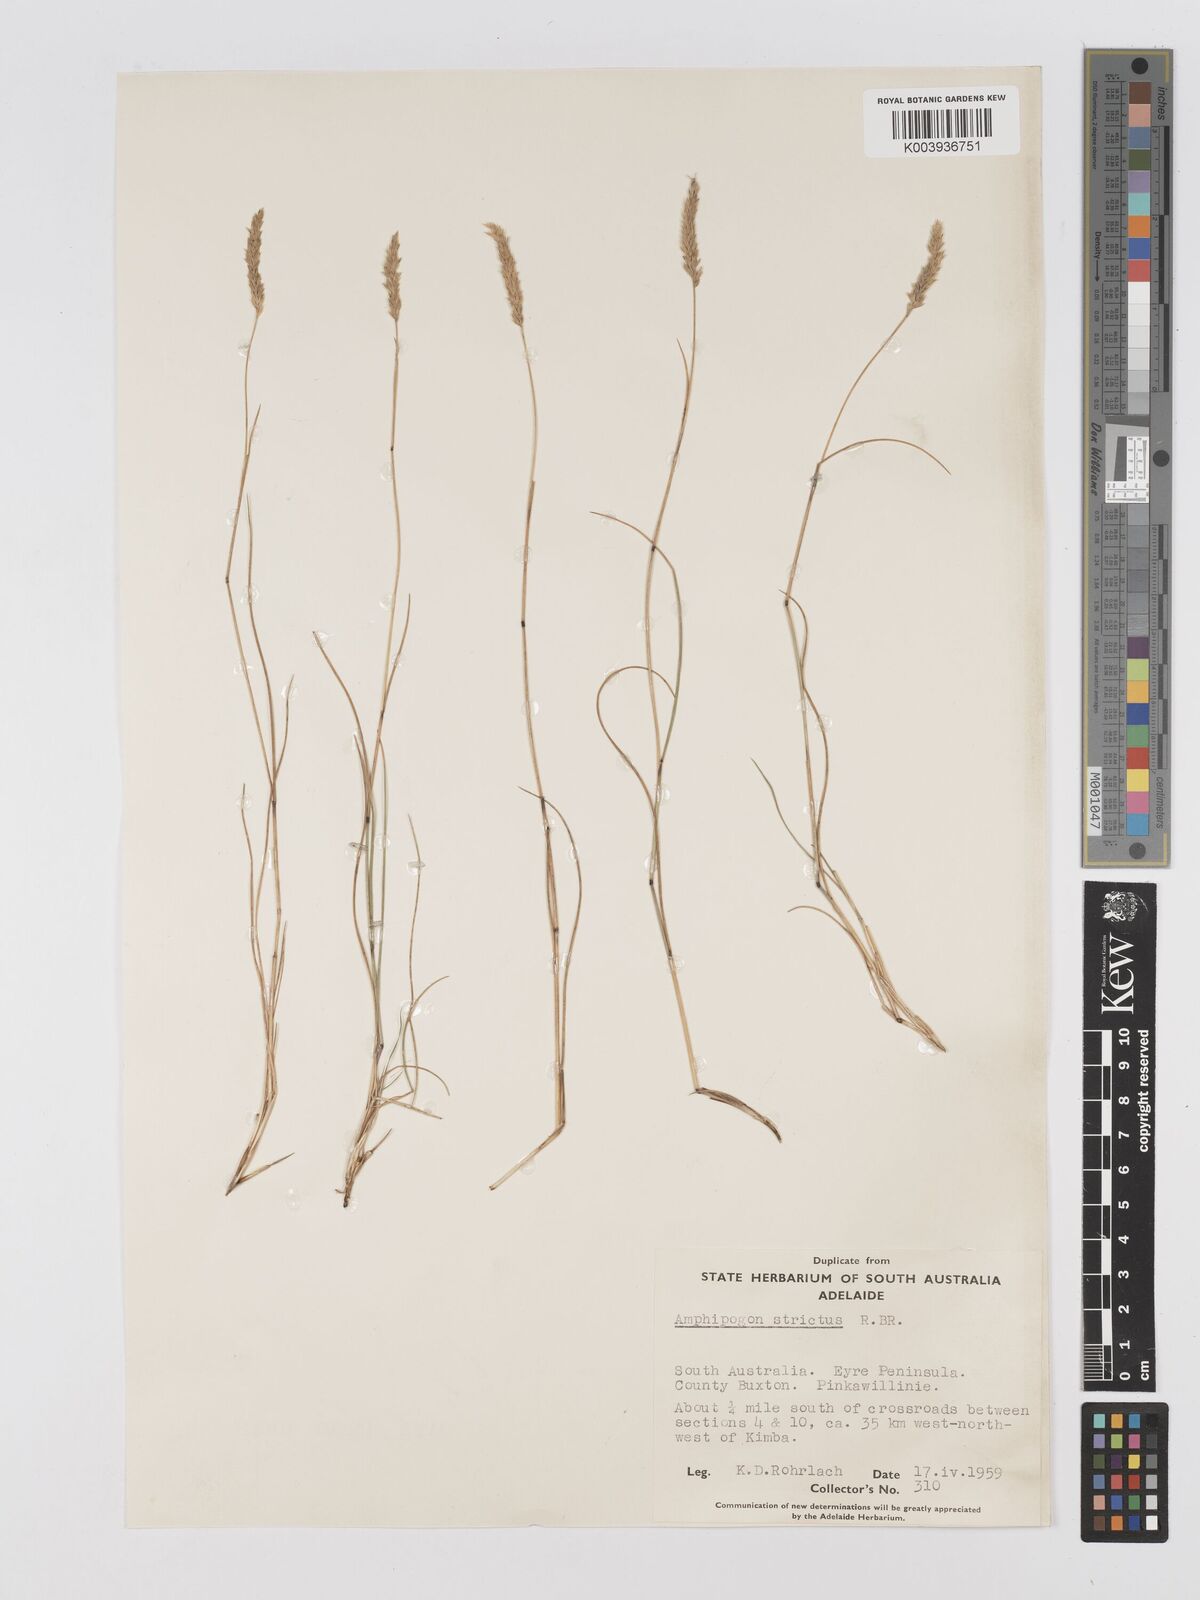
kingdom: Plantae
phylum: Tracheophyta
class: Liliopsida
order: Poales
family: Poaceae
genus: Amphipogon
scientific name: Amphipogon strictus
